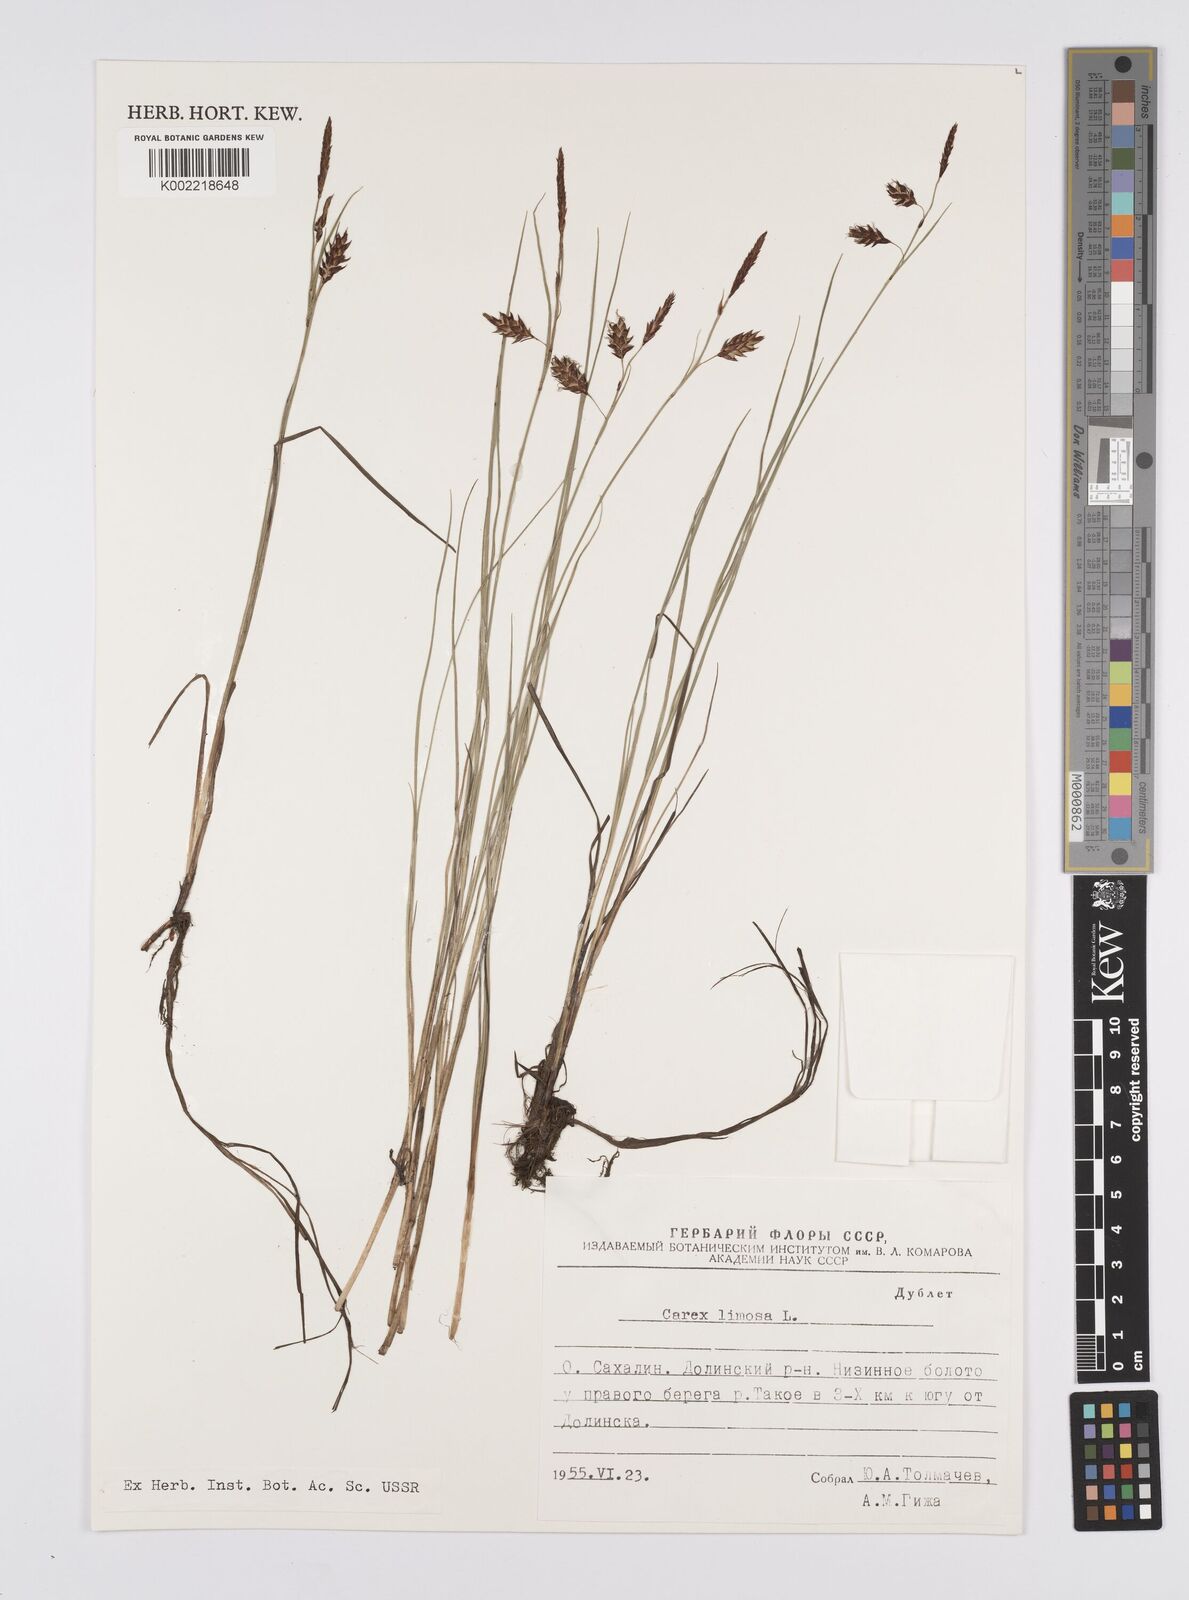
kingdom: Plantae
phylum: Tracheophyta
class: Liliopsida
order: Poales
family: Cyperaceae
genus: Carex
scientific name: Carex limosa
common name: Bog sedge
